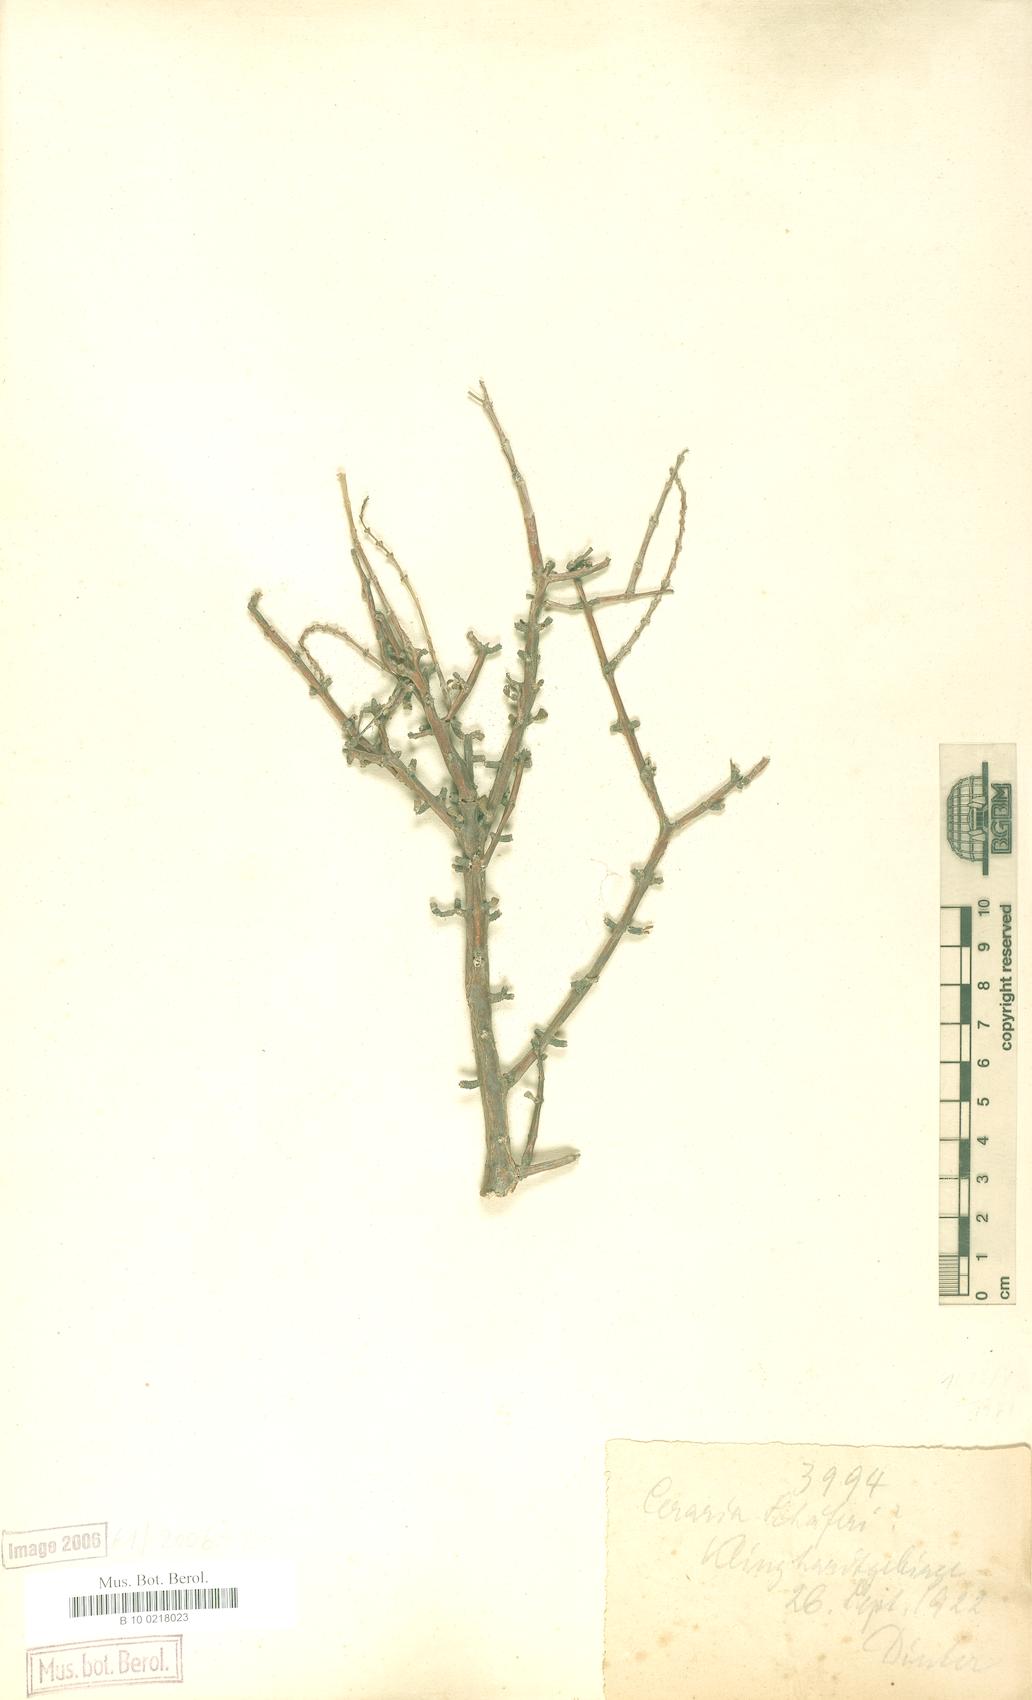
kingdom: Plantae
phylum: Tracheophyta
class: Magnoliopsida
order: Caryophyllales
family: Didiereaceae
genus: Portulacaria
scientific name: Portulacaria fruticulosa
